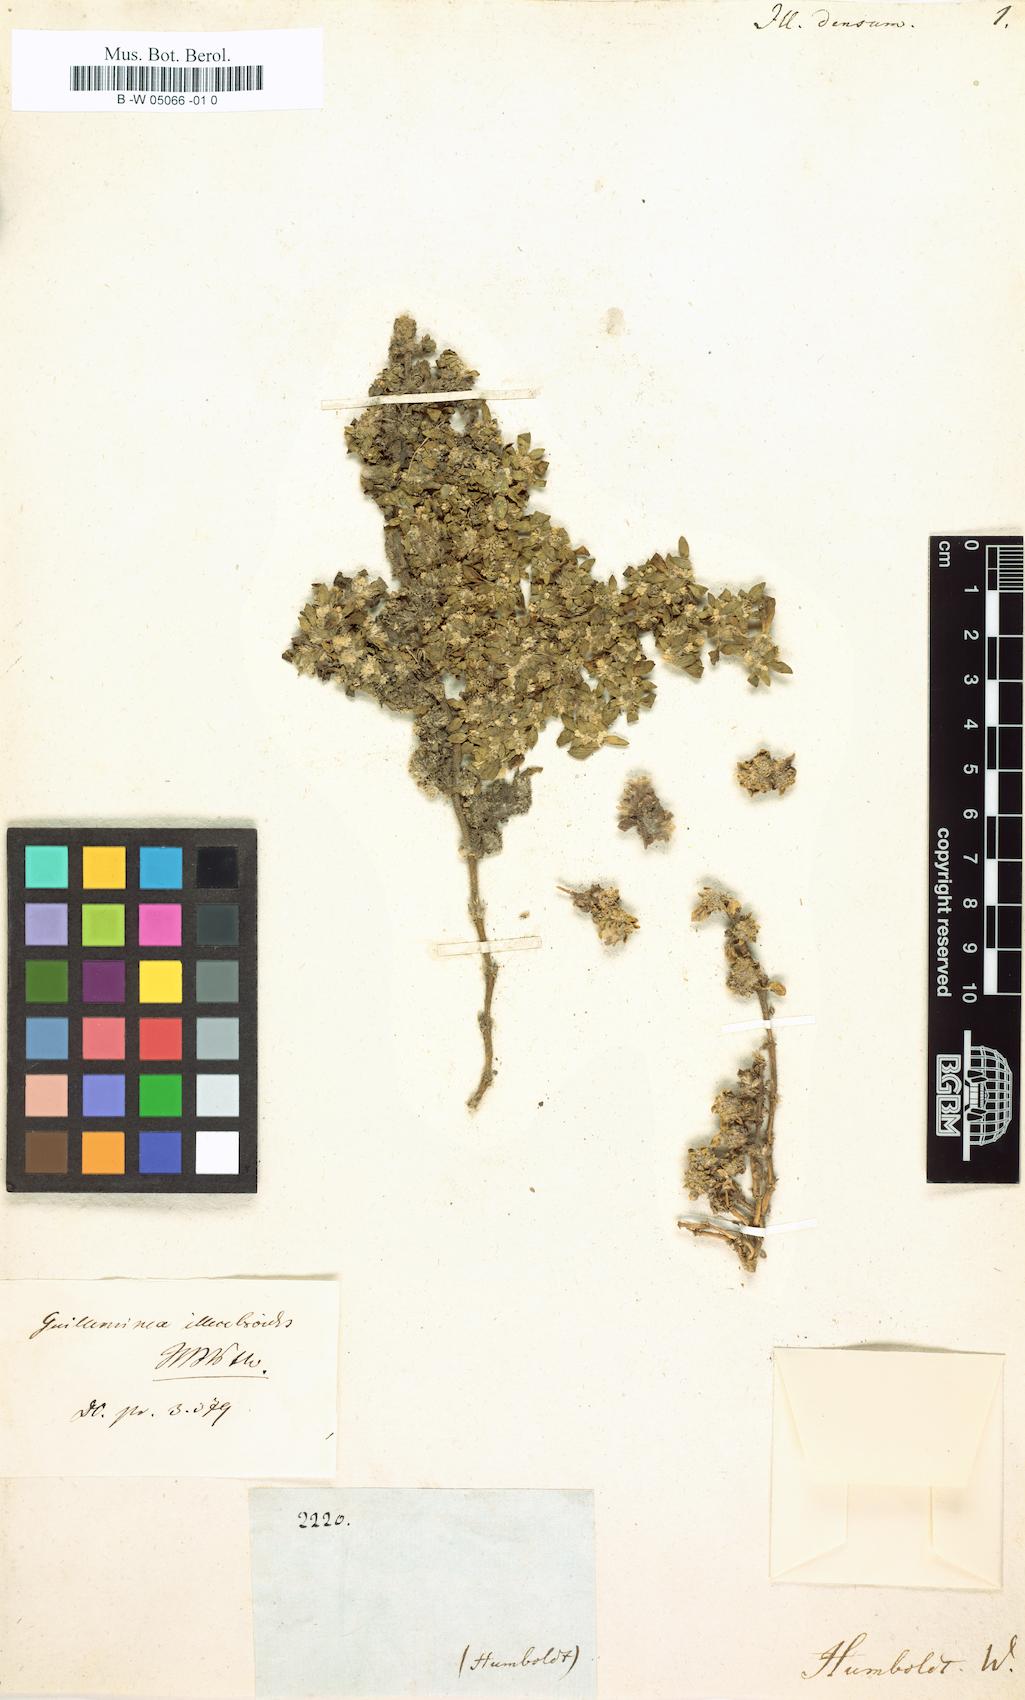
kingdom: Plantae
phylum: Tracheophyta
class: Magnoliopsida
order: Caryophyllales
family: Amaranthaceae
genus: Guilleminea
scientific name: Guilleminea densa
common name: Small matweed
